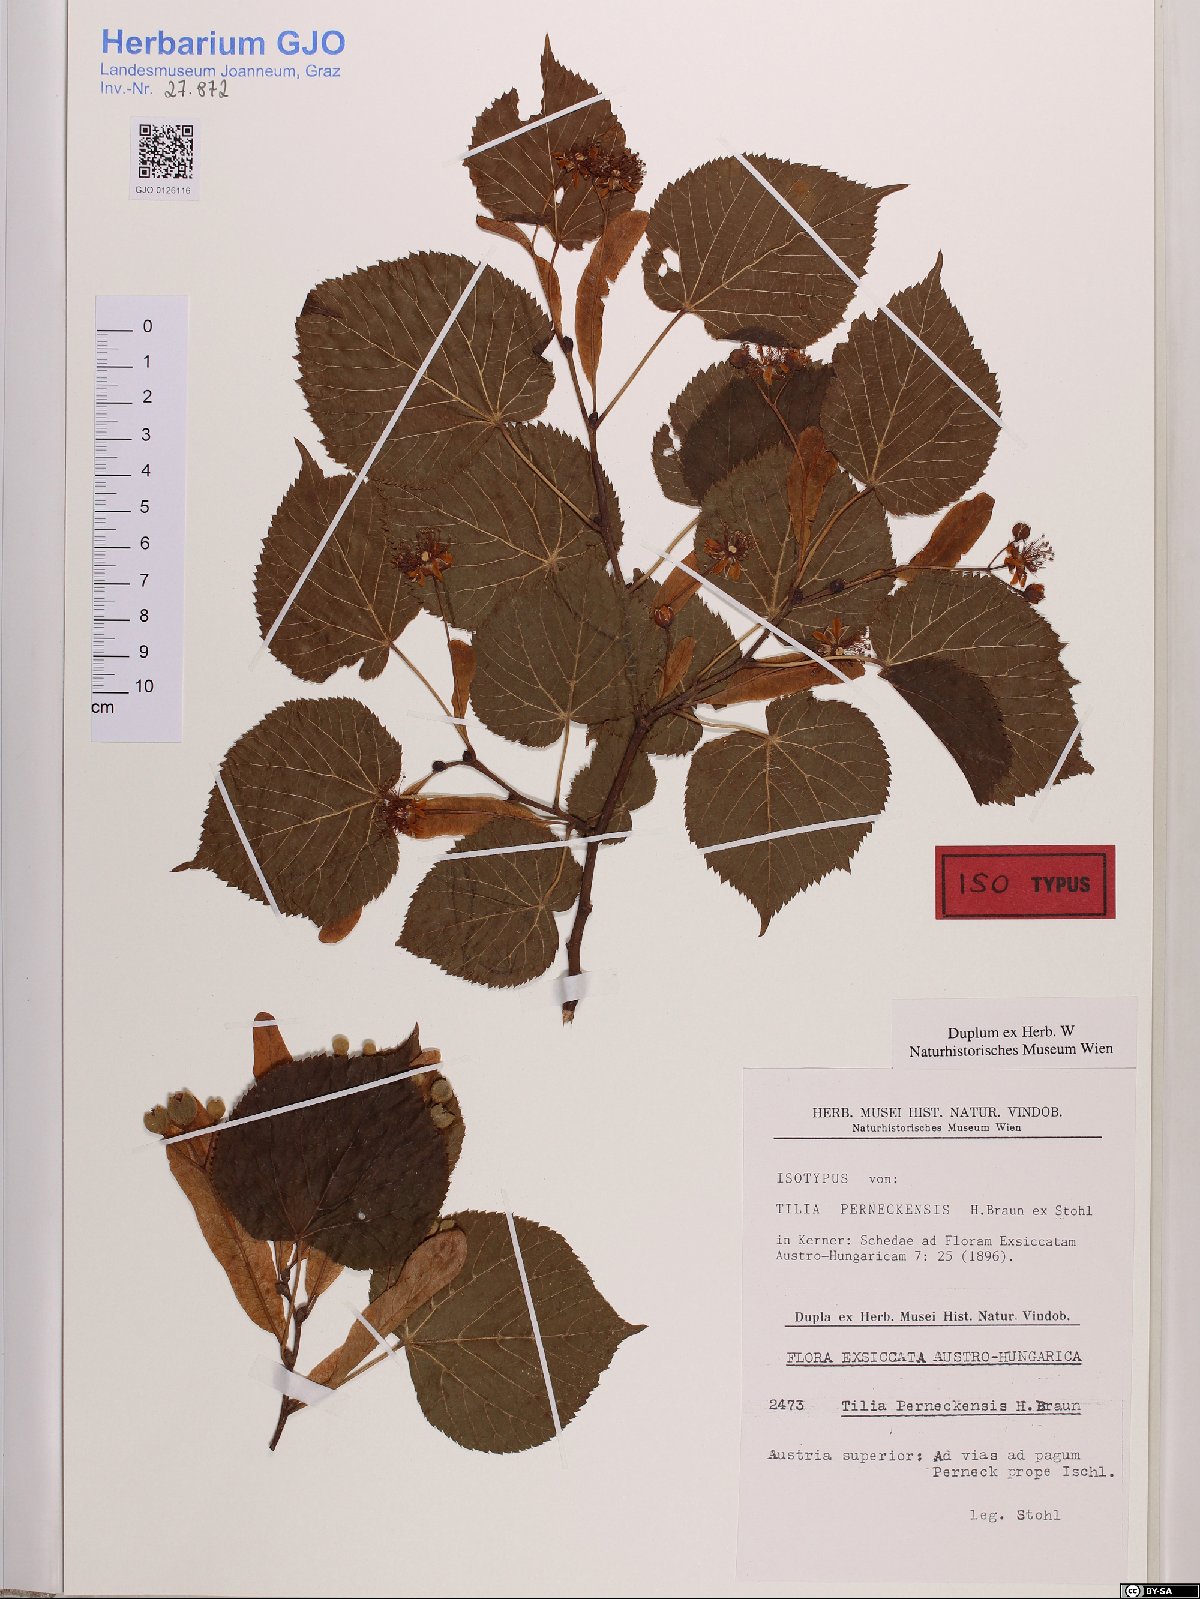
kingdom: Plantae
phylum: Tracheophyta
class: Magnoliopsida
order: Malvales
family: Malvaceae
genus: Tilia
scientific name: Tilia perneckensis
